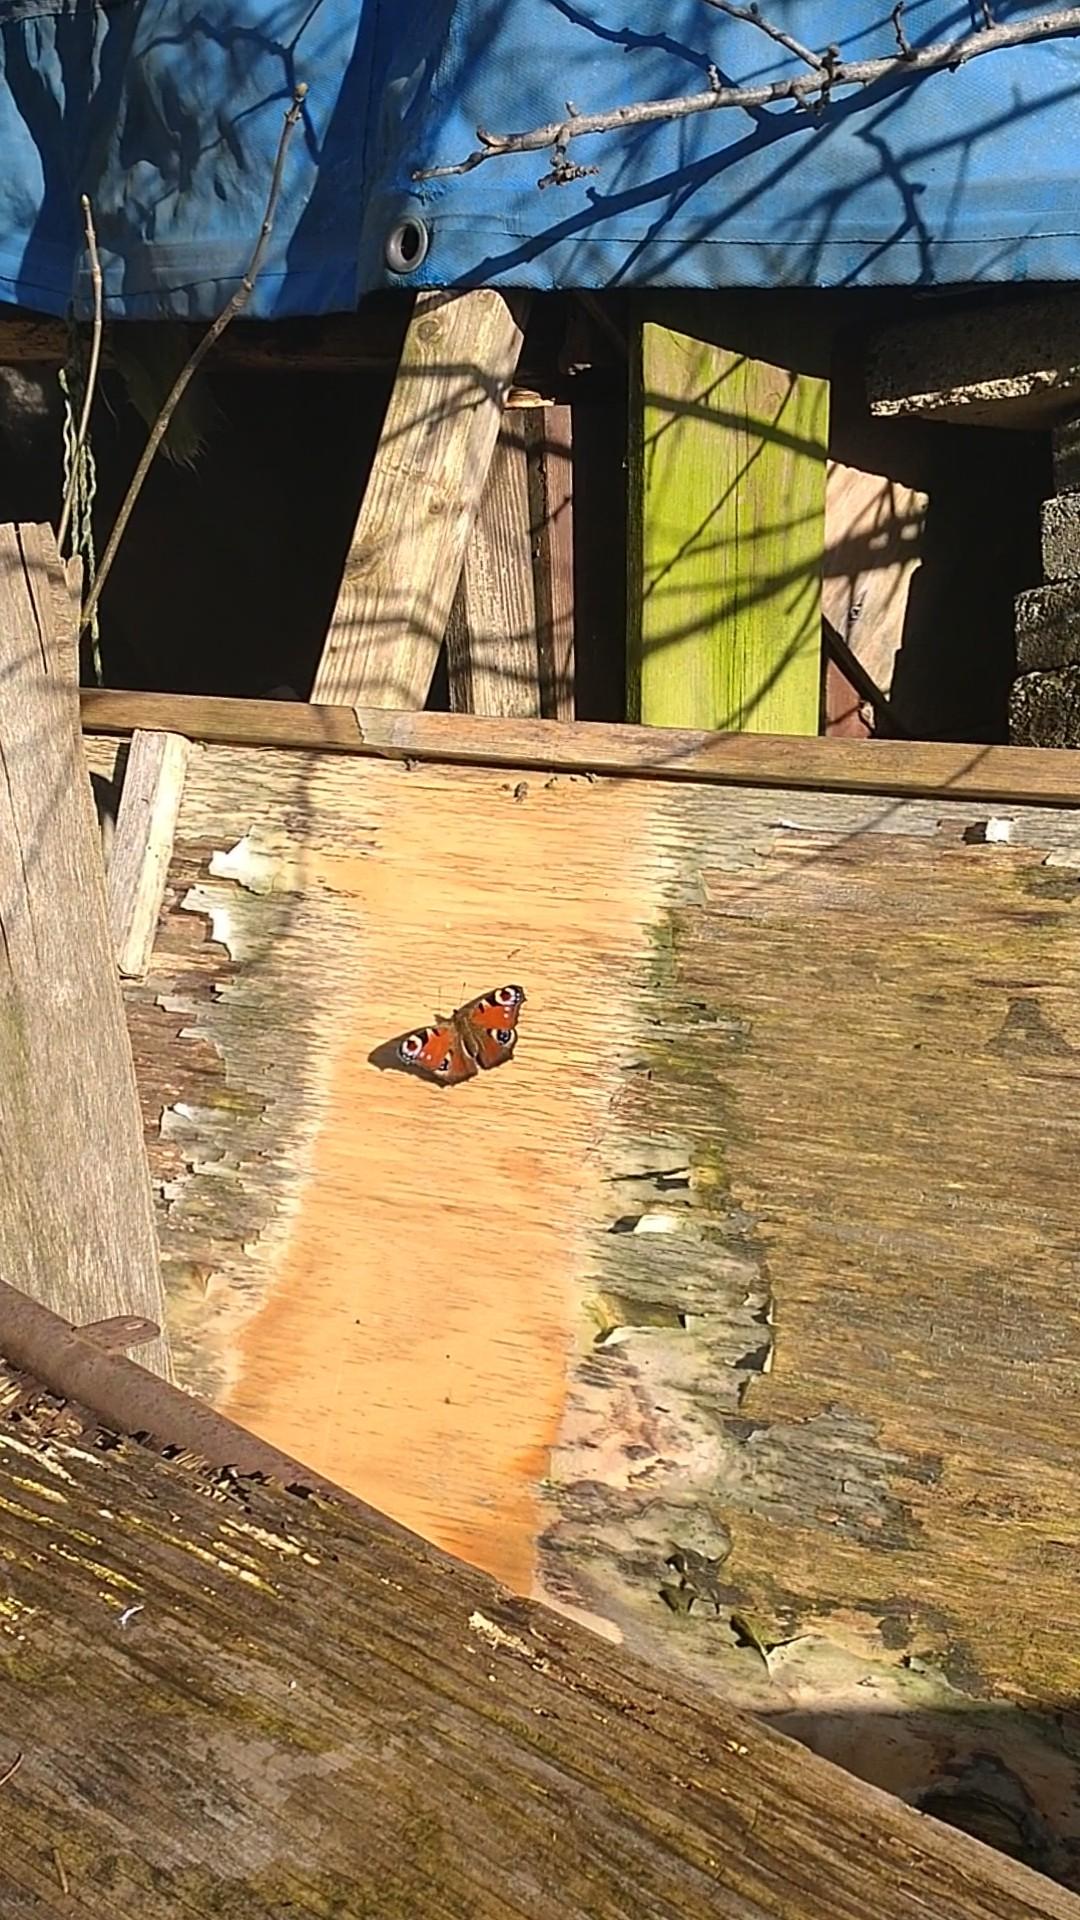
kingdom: Animalia
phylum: Arthropoda
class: Insecta
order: Lepidoptera
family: Nymphalidae
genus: Aglais
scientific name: Aglais io
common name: Dagpåfugleøje
